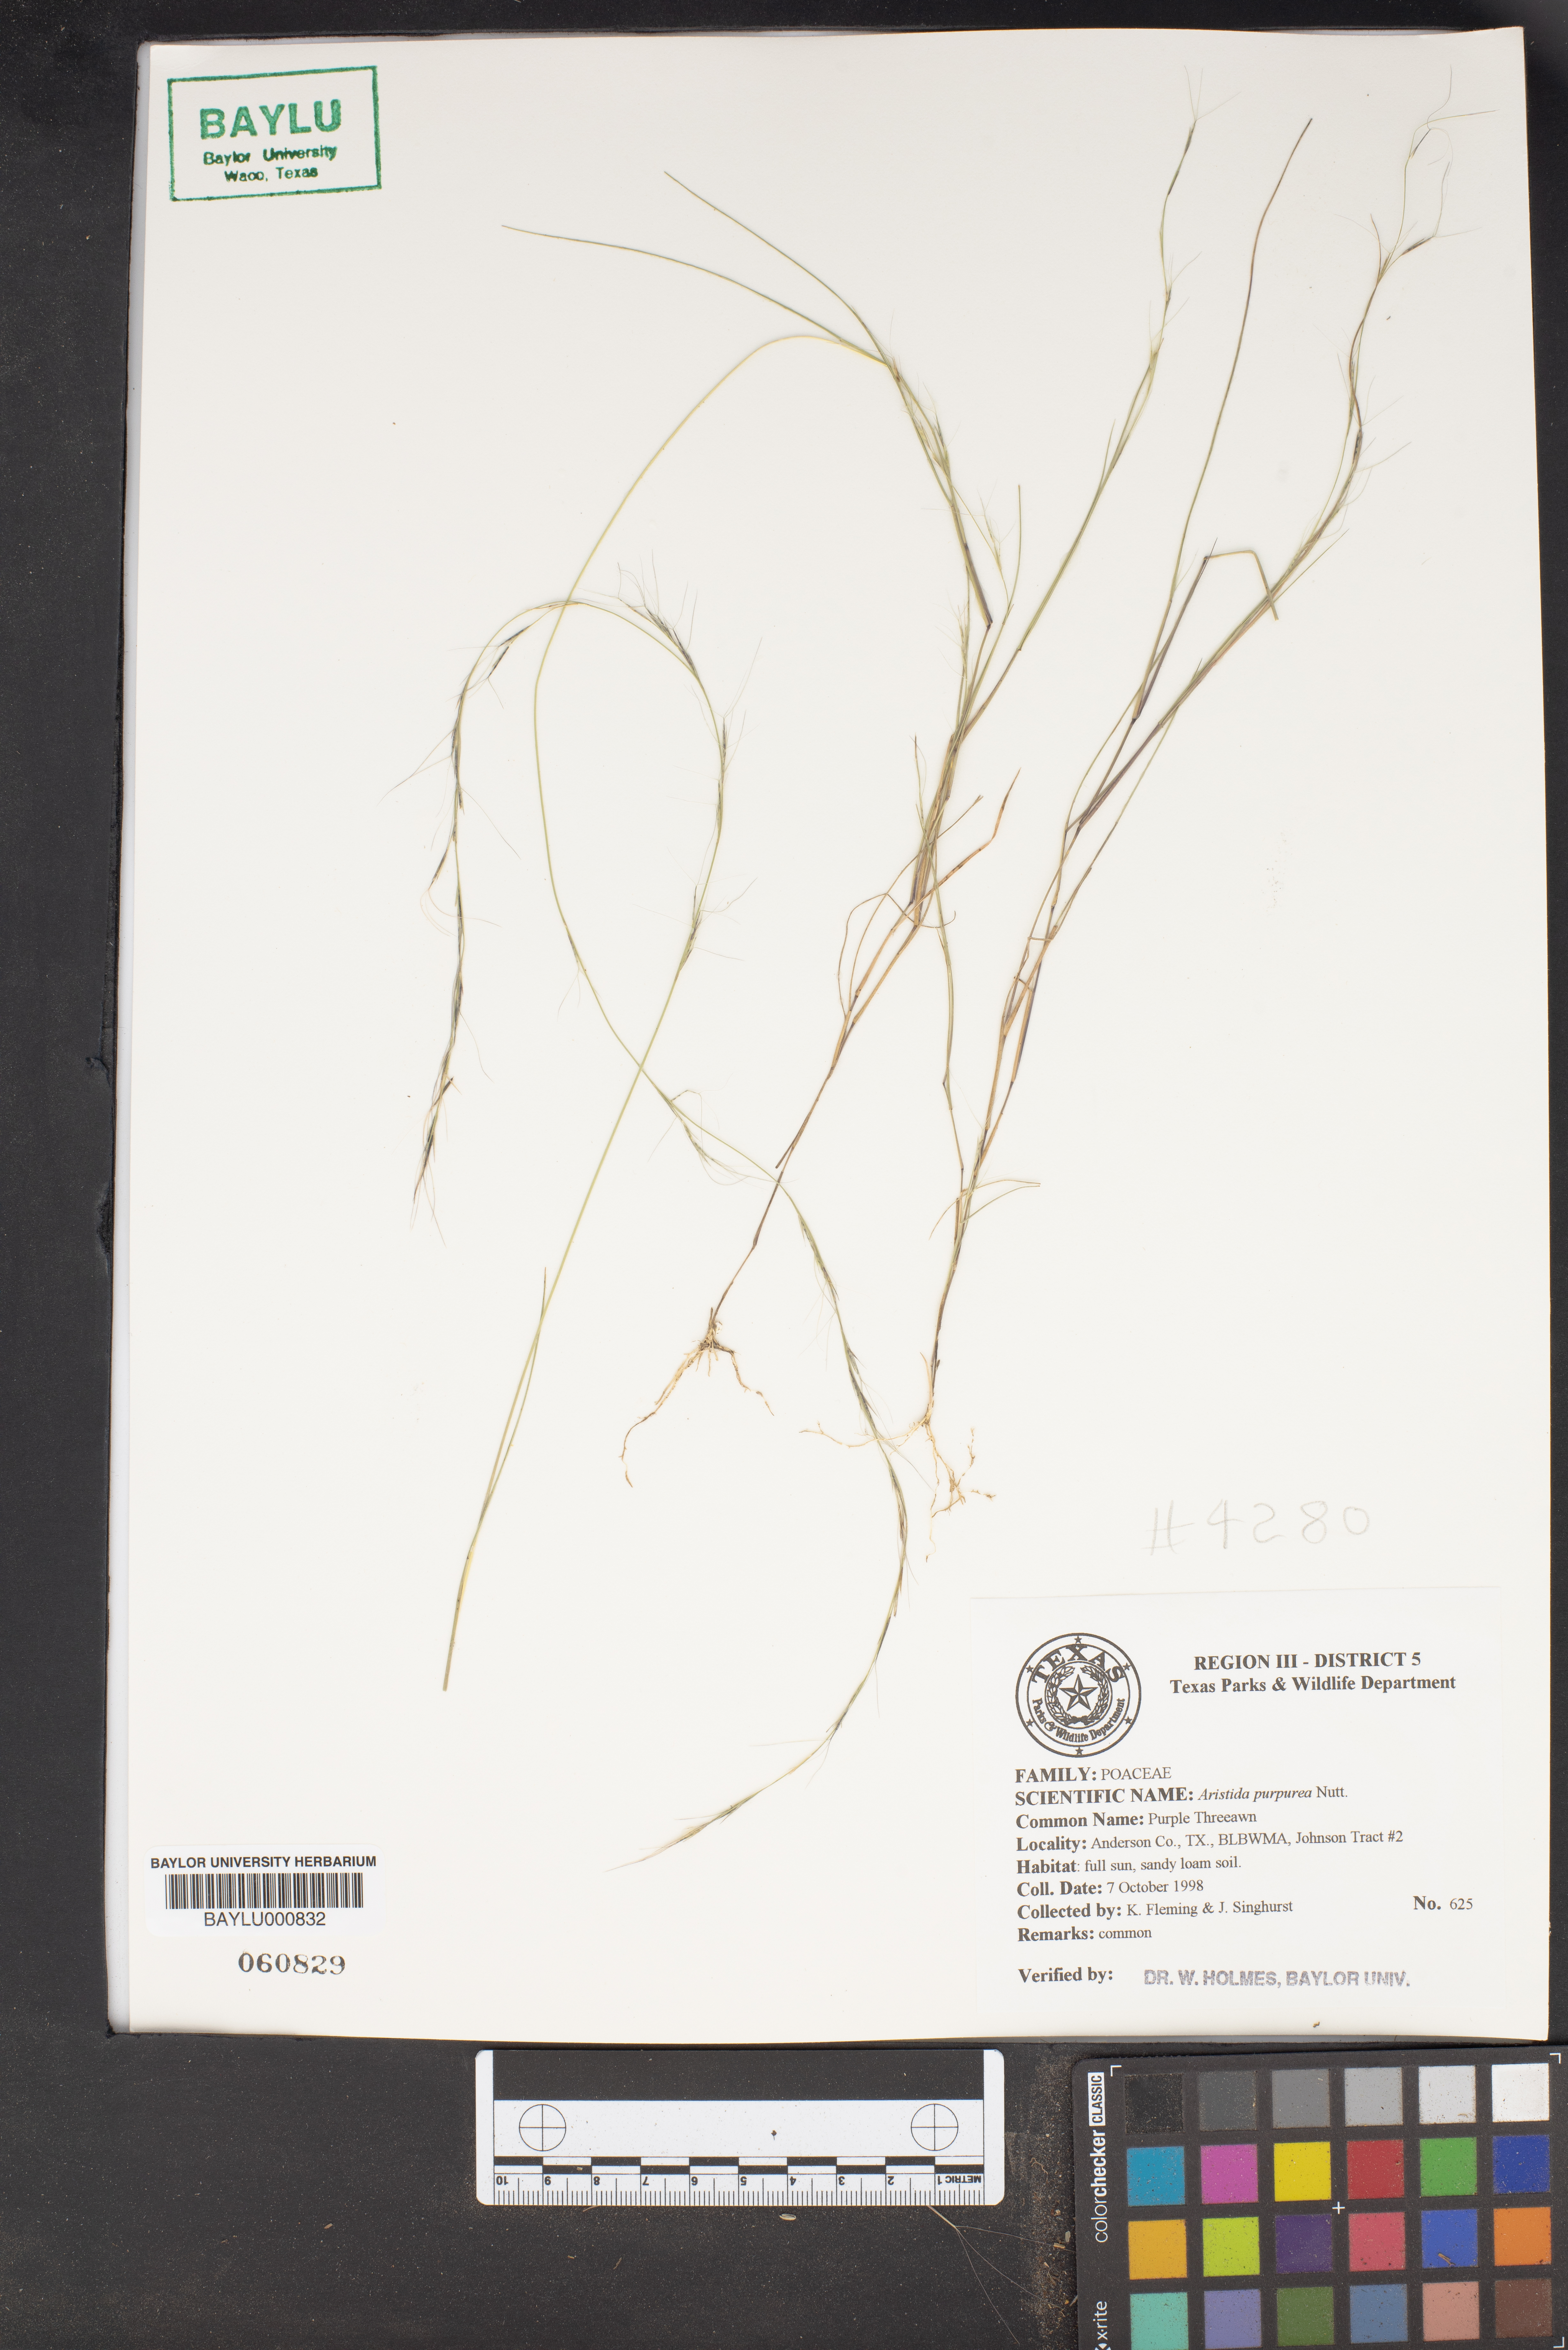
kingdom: Plantae
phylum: Tracheophyta
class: Liliopsida
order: Poales
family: Poaceae
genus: Aristida
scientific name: Aristida purpurea
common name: Purple threeawn
